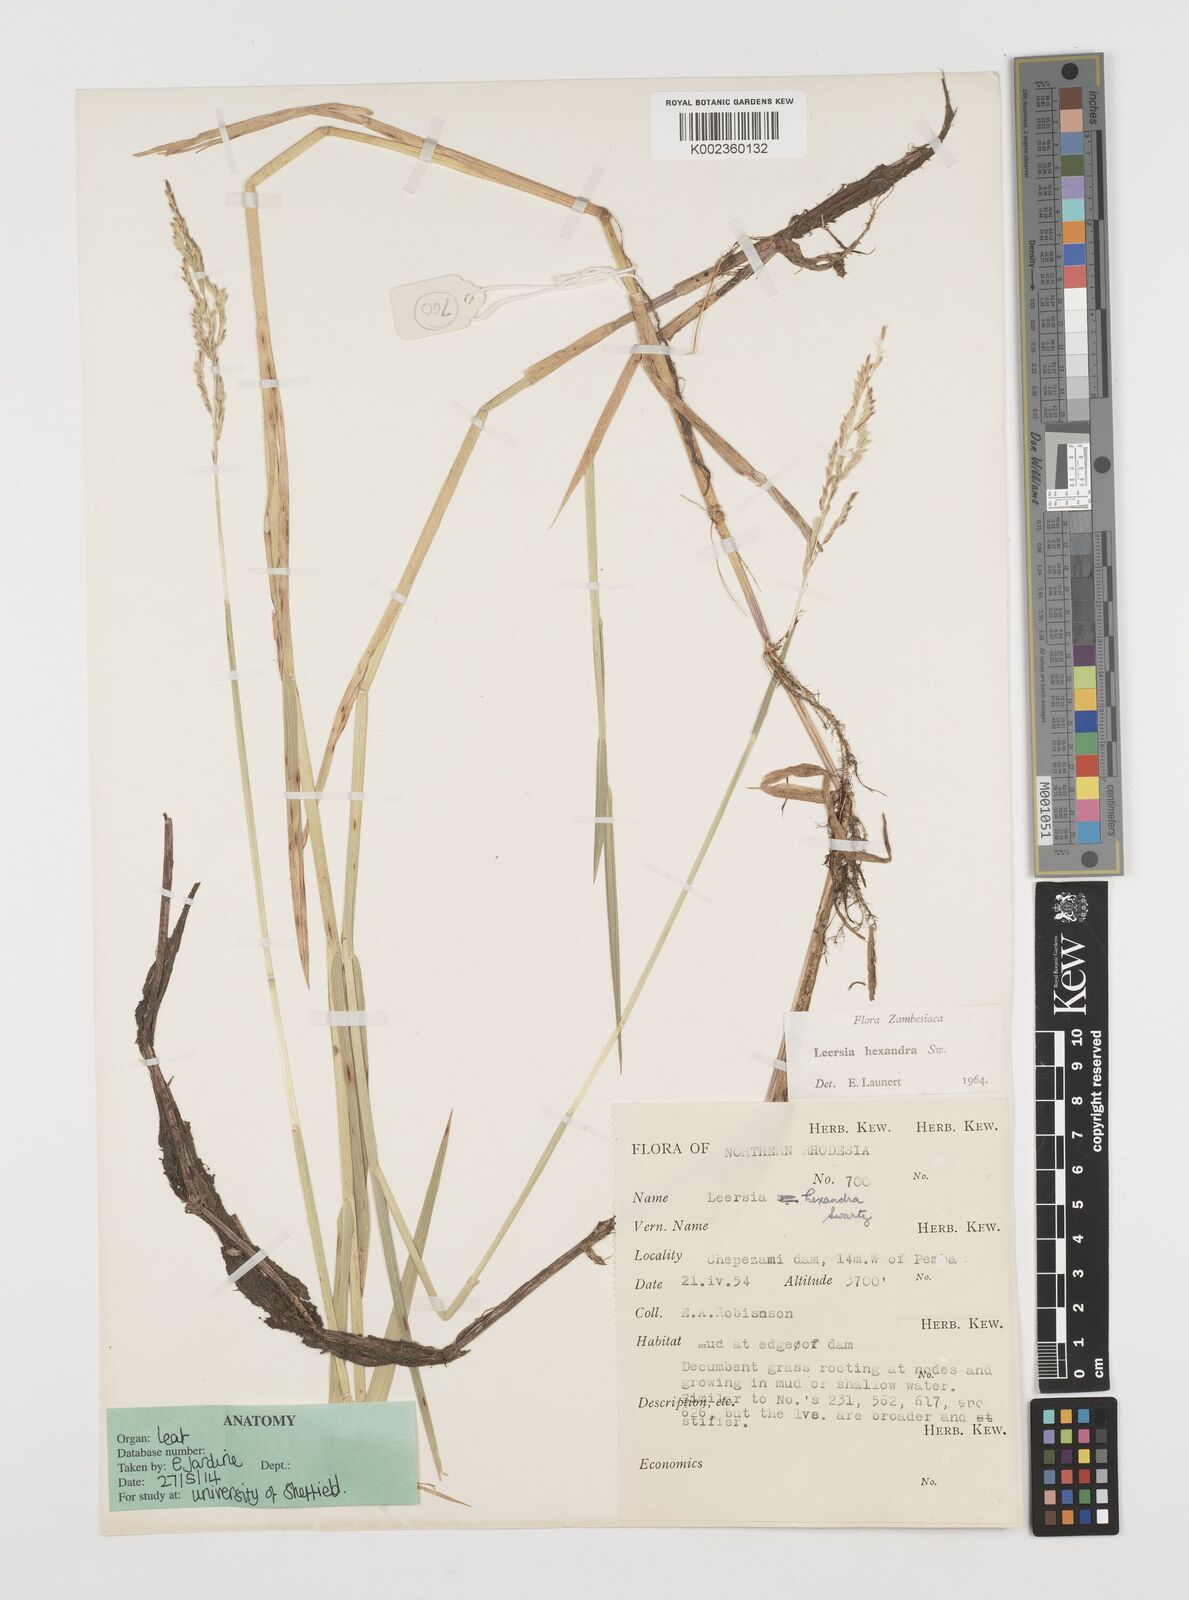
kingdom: Plantae
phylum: Tracheophyta
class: Liliopsida
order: Poales
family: Poaceae
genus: Leersia
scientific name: Leersia hexandra
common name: Southern cut grass
